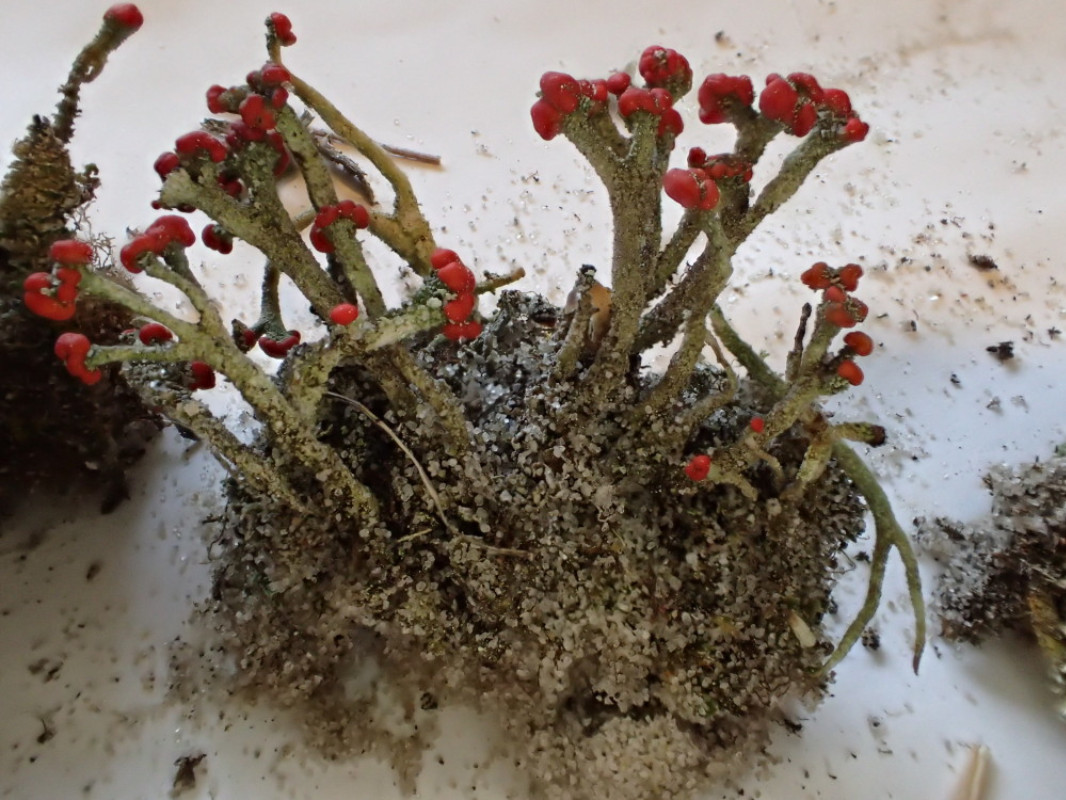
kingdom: Fungi
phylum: Ascomycota
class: Lecanoromycetes
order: Lecanorales
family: Cladoniaceae
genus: Cladonia
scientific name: Cladonia floerkeana
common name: lakrød bægerlav
